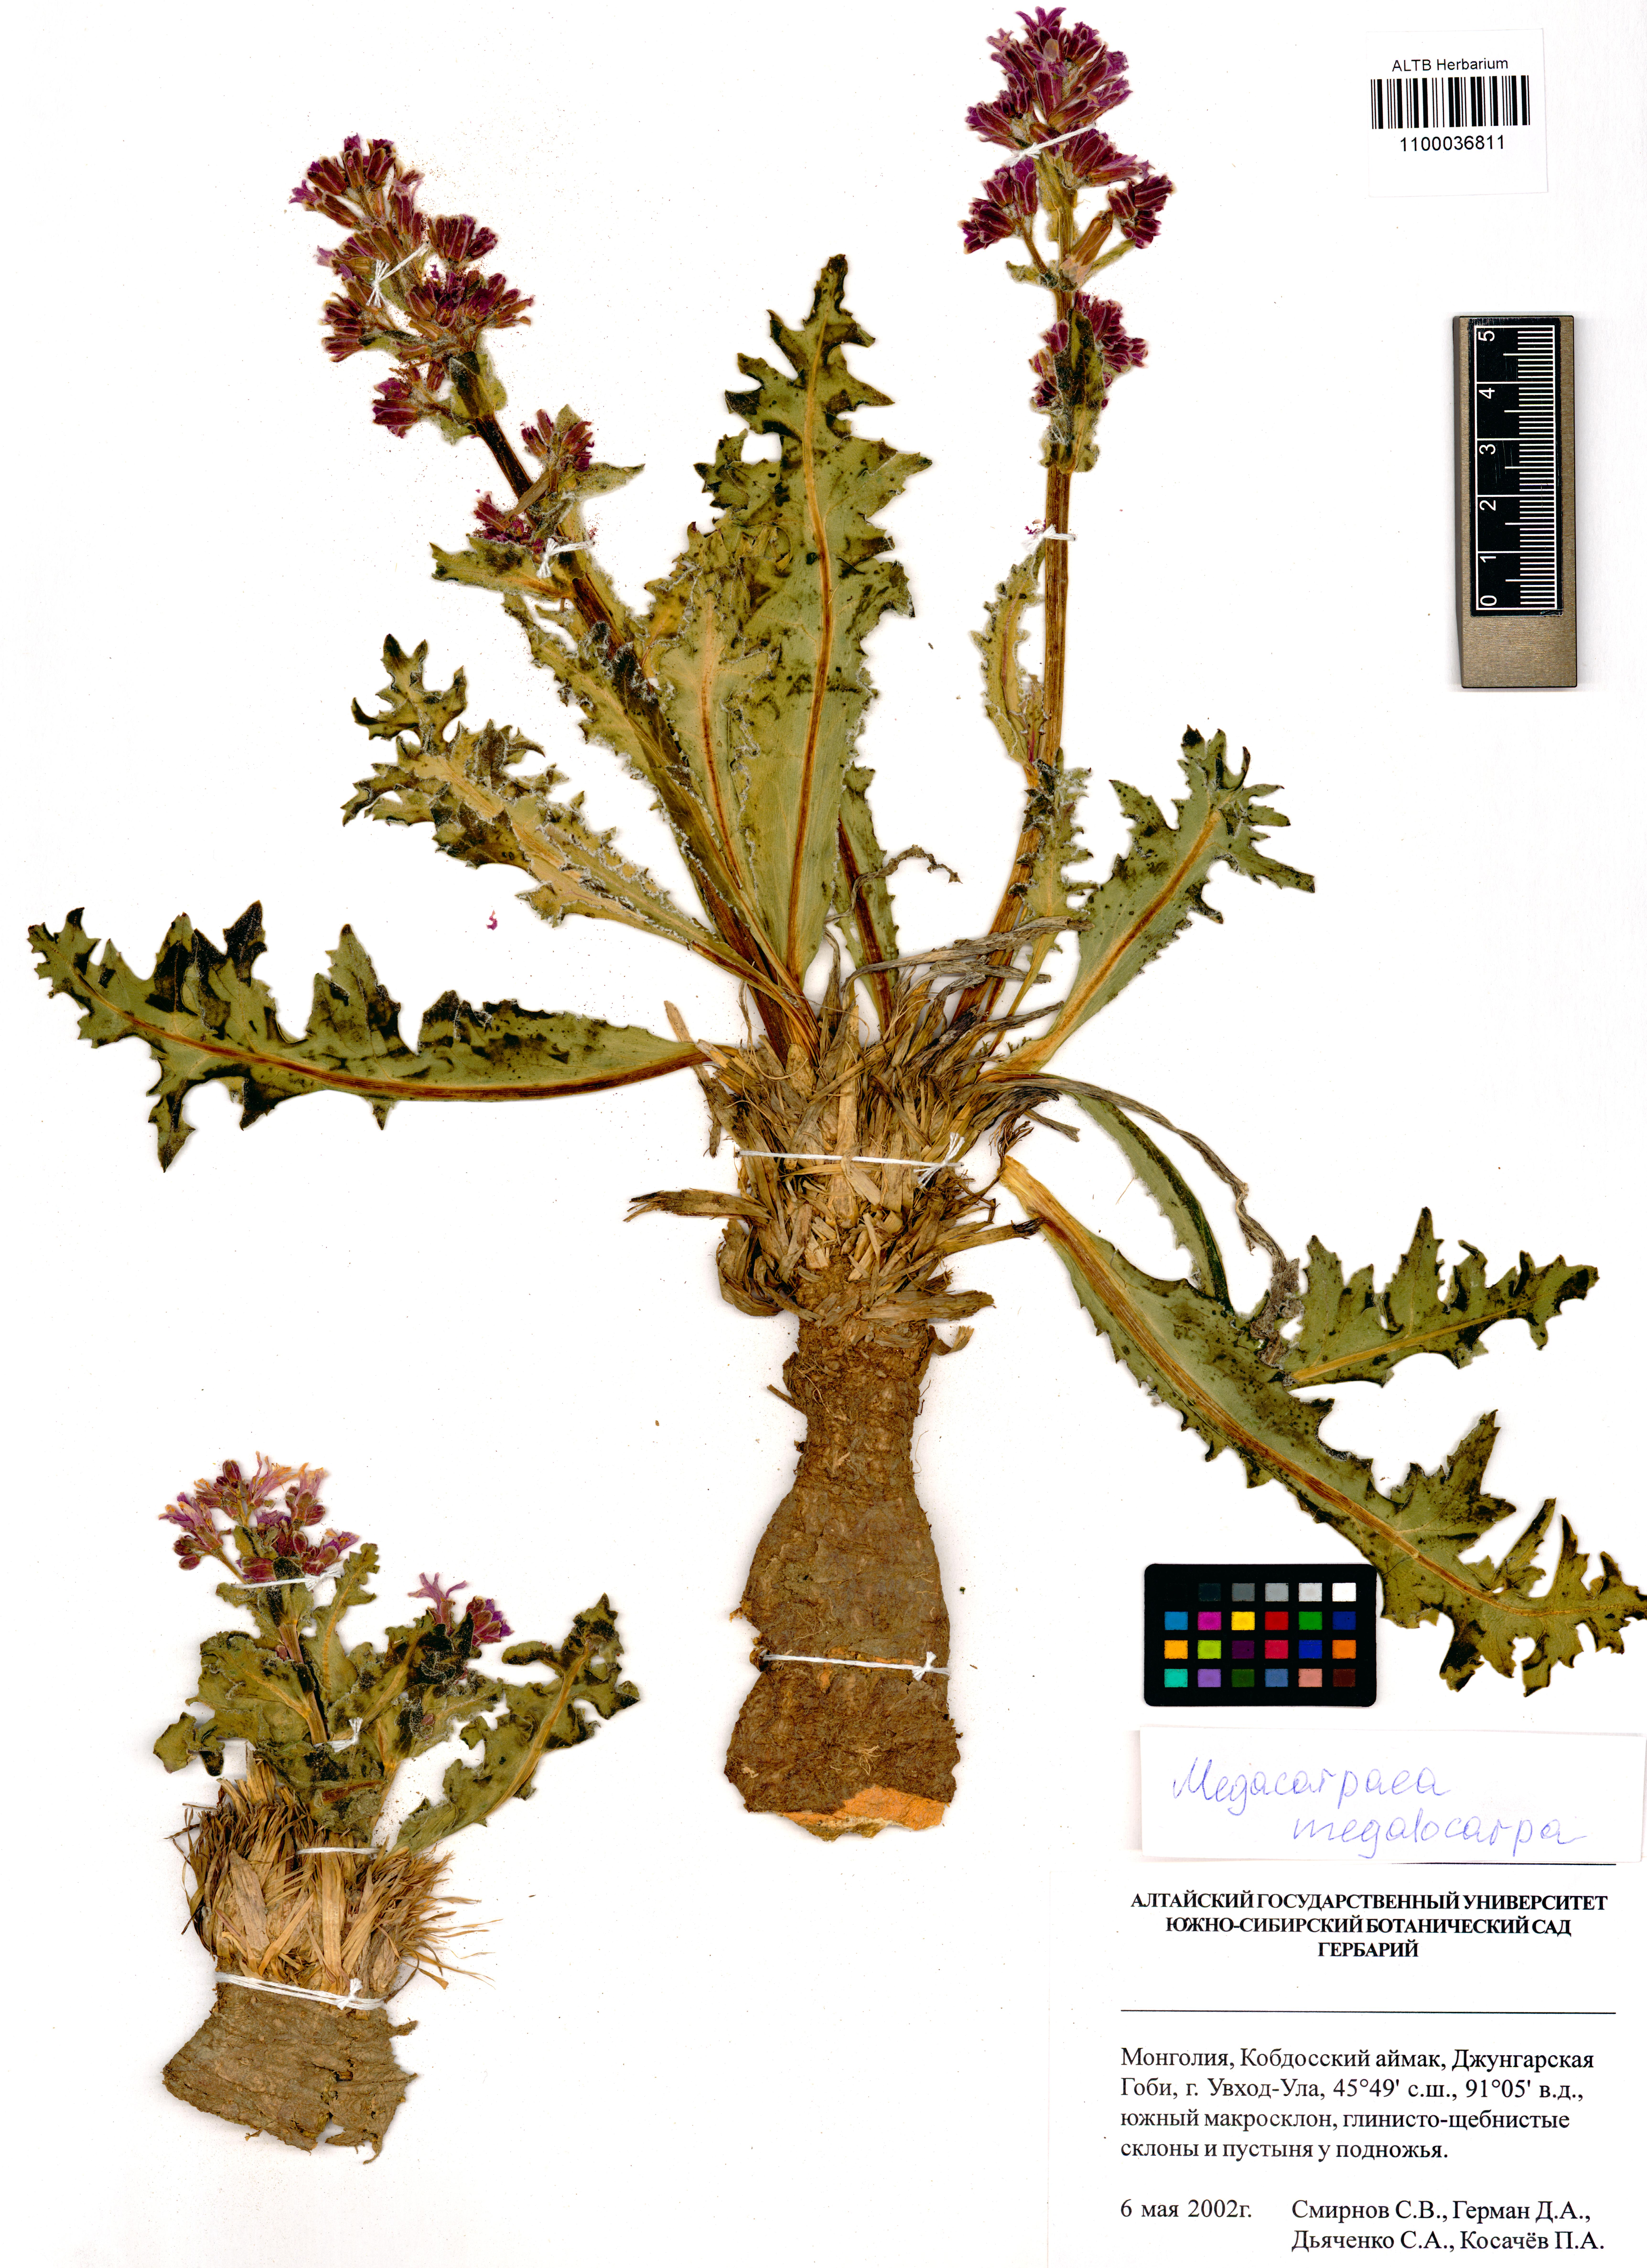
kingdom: Plantae
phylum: Tracheophyta
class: Magnoliopsida
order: Brassicales
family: Brassicaceae
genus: Megacarpaea
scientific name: Megacarpaea megalocarpa
